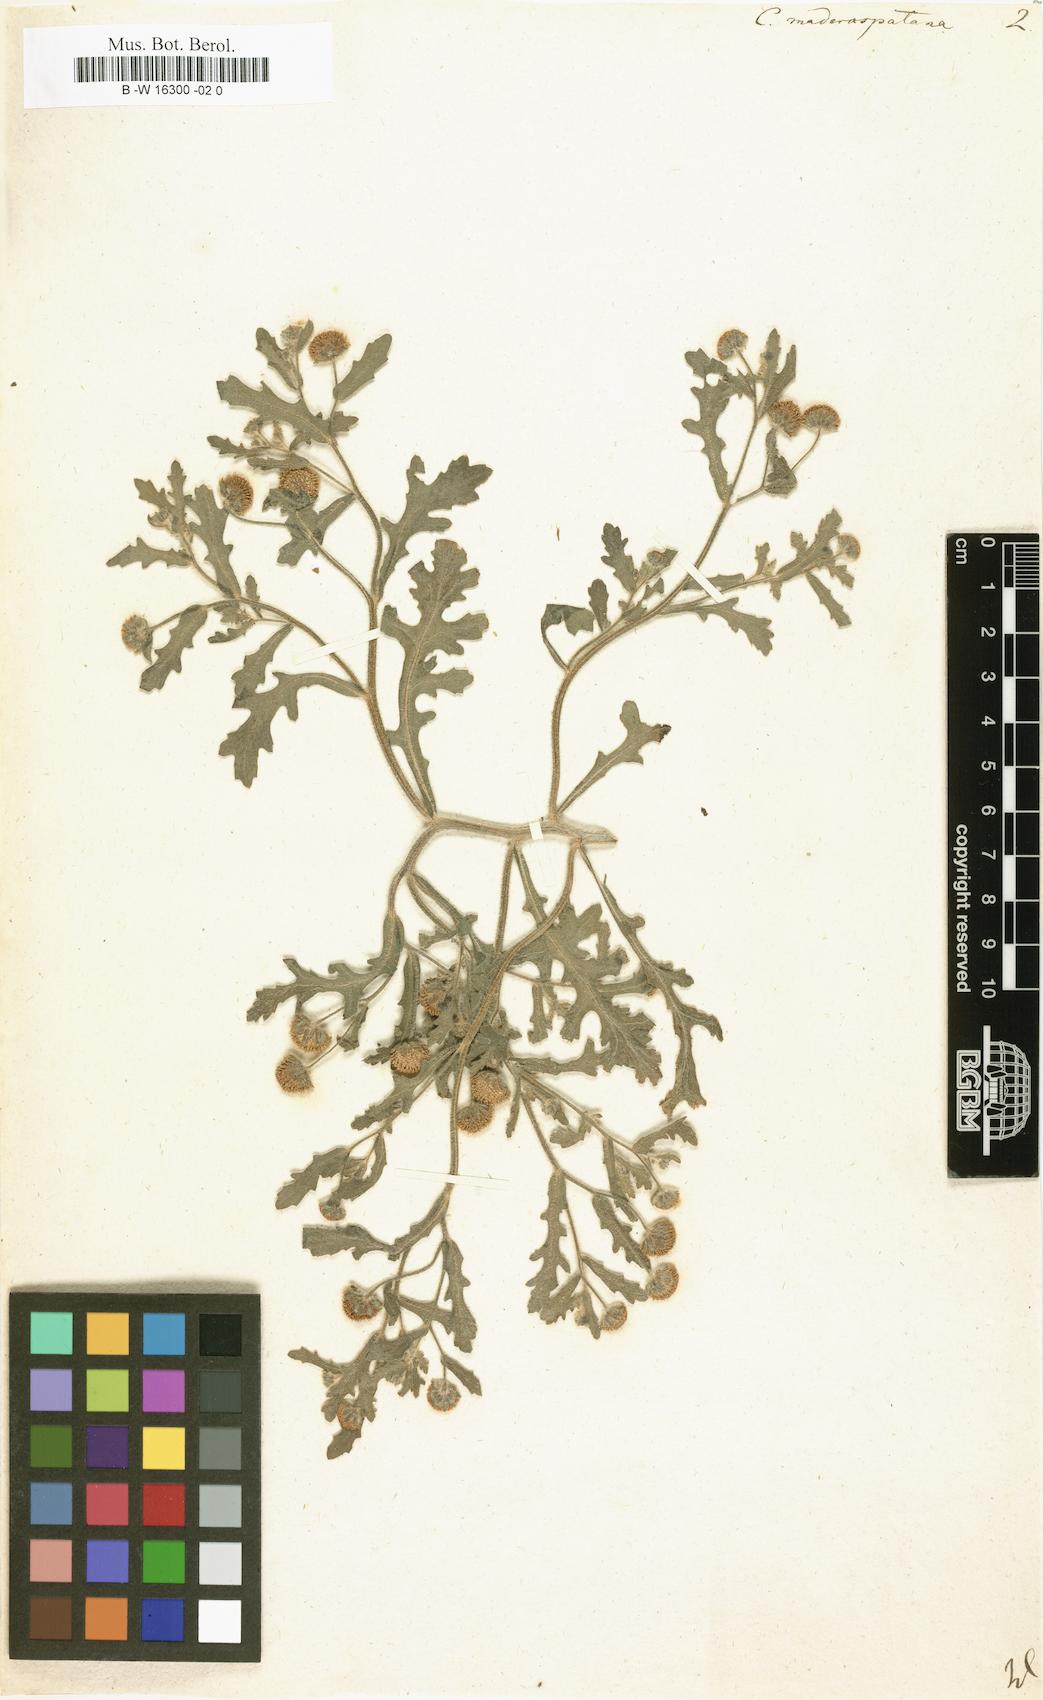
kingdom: Plantae
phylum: Tracheophyta
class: Magnoliopsida
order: Asterales
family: Asteraceae
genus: Grangea
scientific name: Grangea maderaspatana
